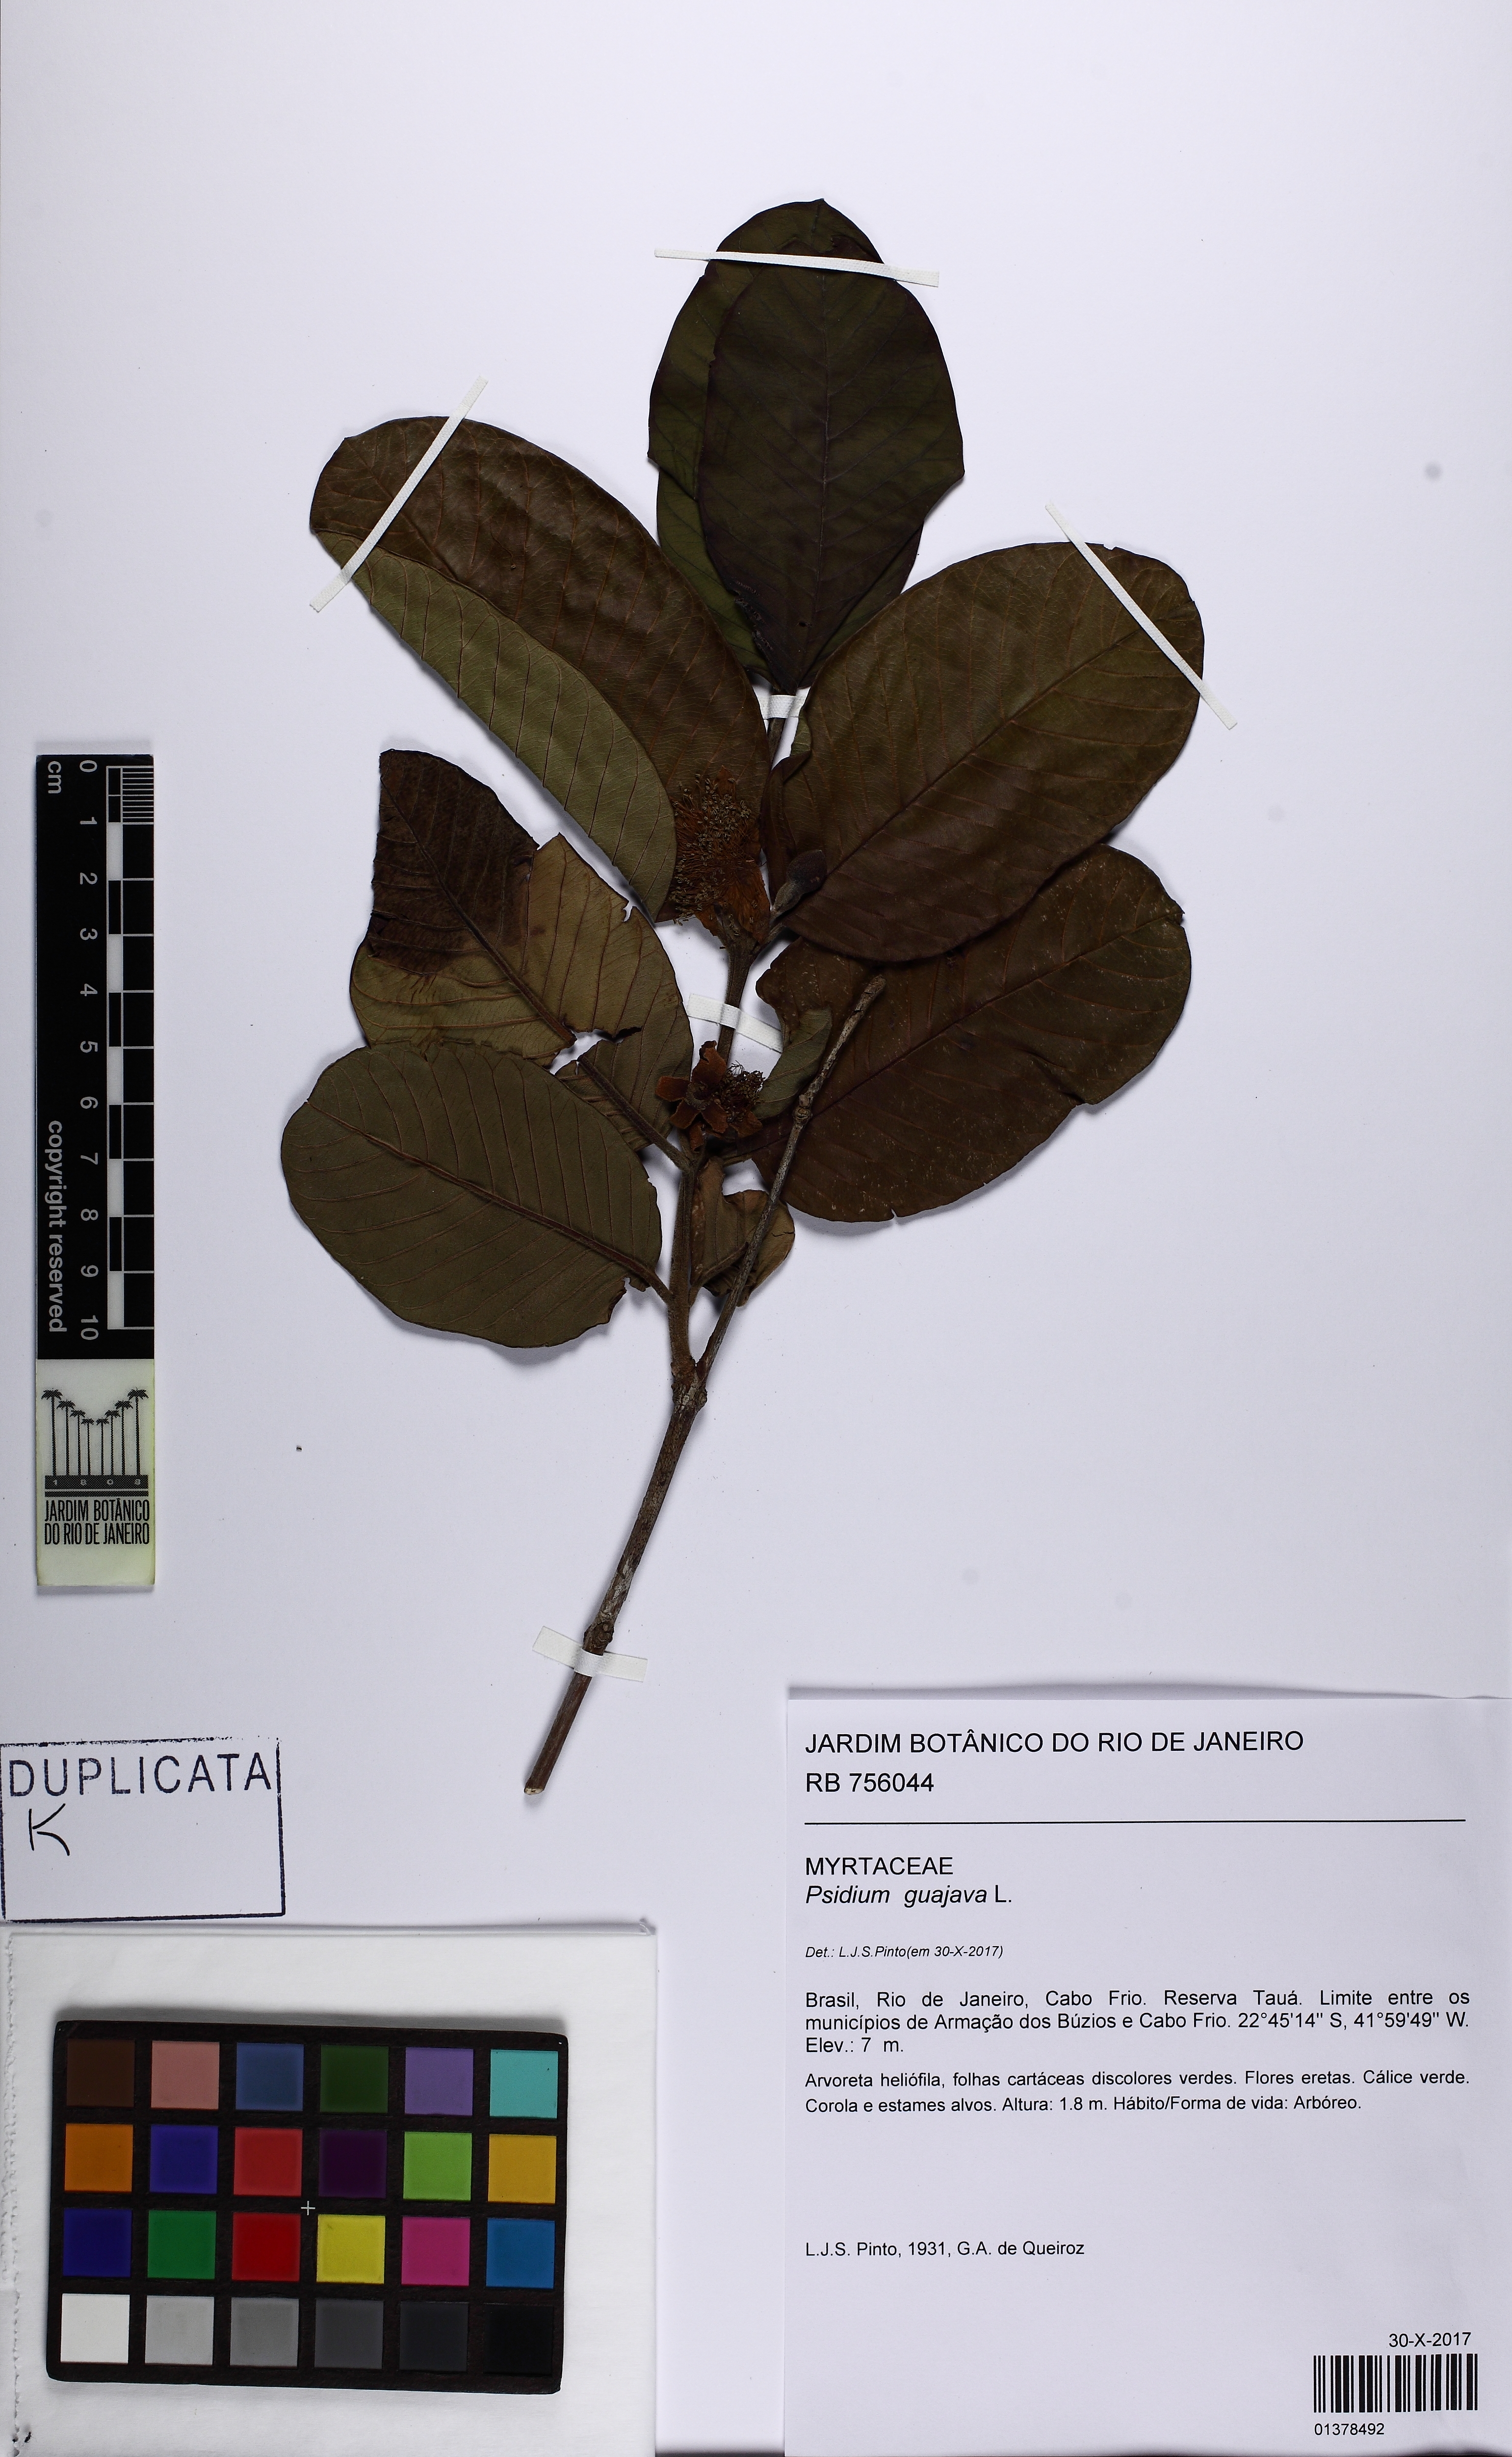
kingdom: Plantae
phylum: Tracheophyta
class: Magnoliopsida
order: Myrtales
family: Myrtaceae
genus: Psidium
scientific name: Psidium guajava
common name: Guava
